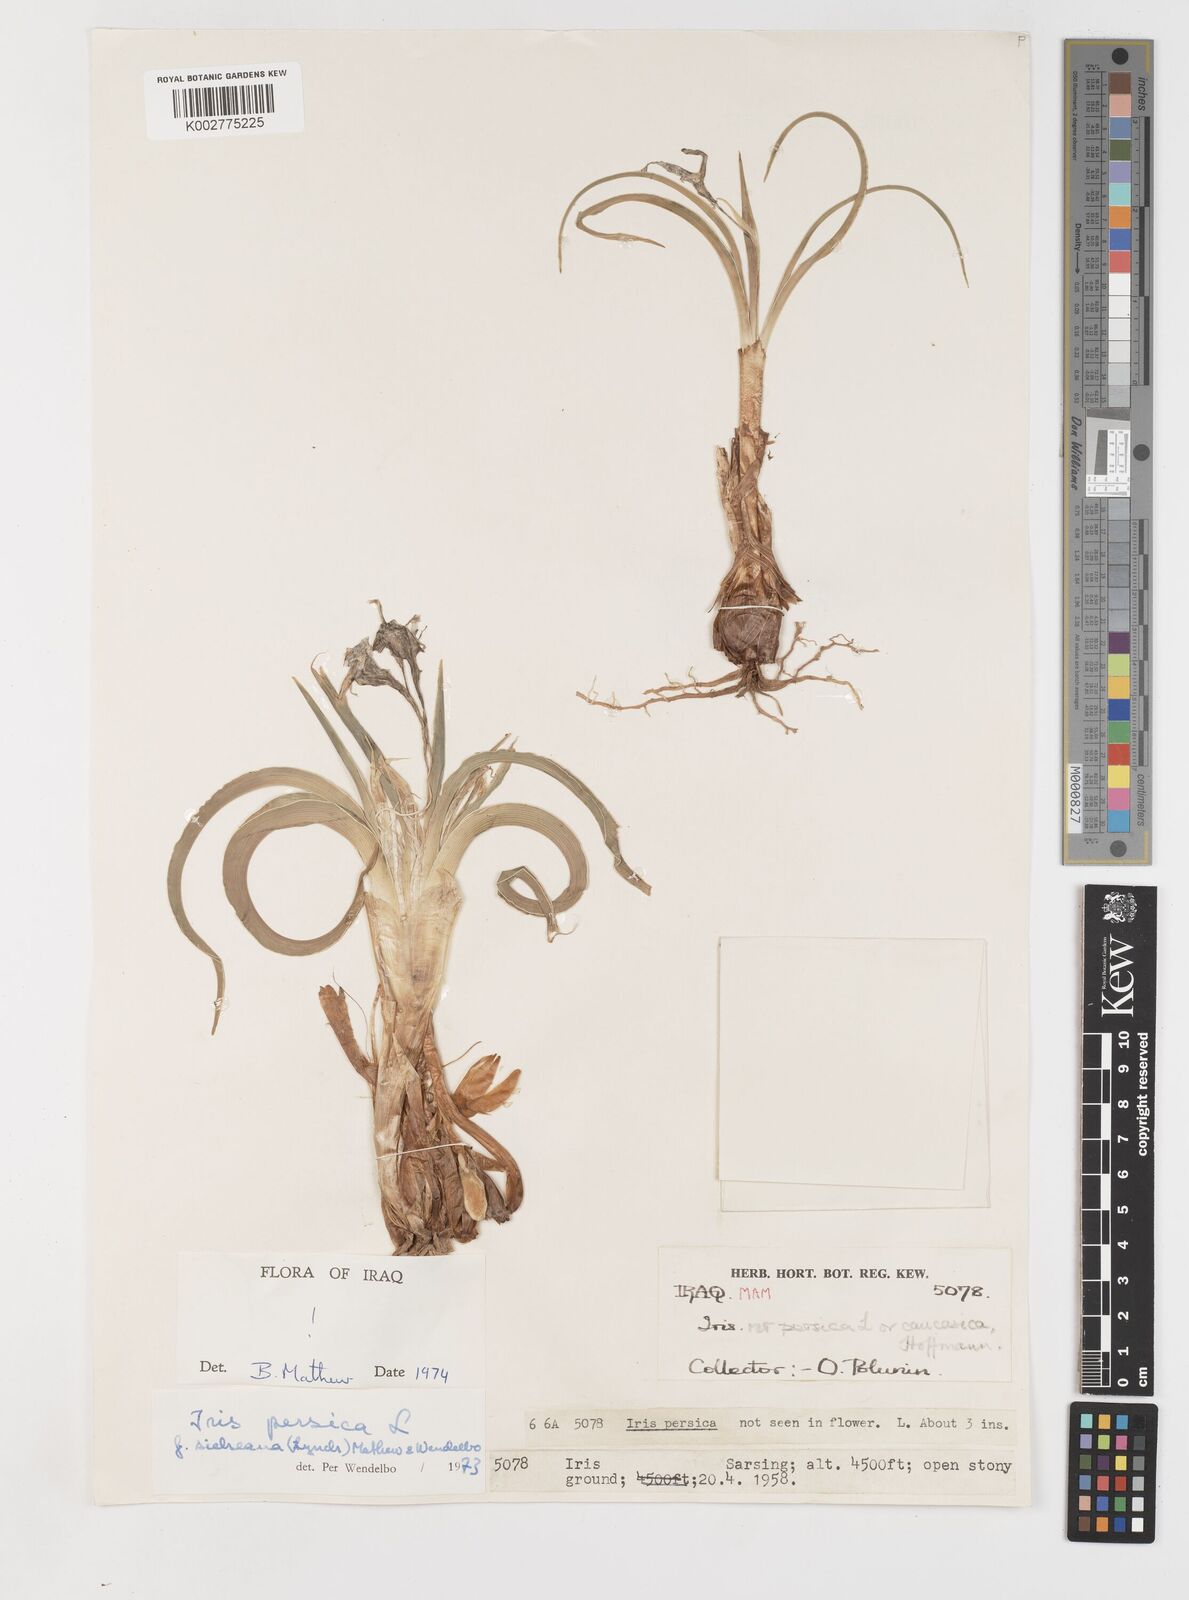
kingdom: Plantae
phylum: Tracheophyta
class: Liliopsida
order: Asparagales
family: Iridaceae
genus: Iris
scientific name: Iris persica
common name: Persian iris
